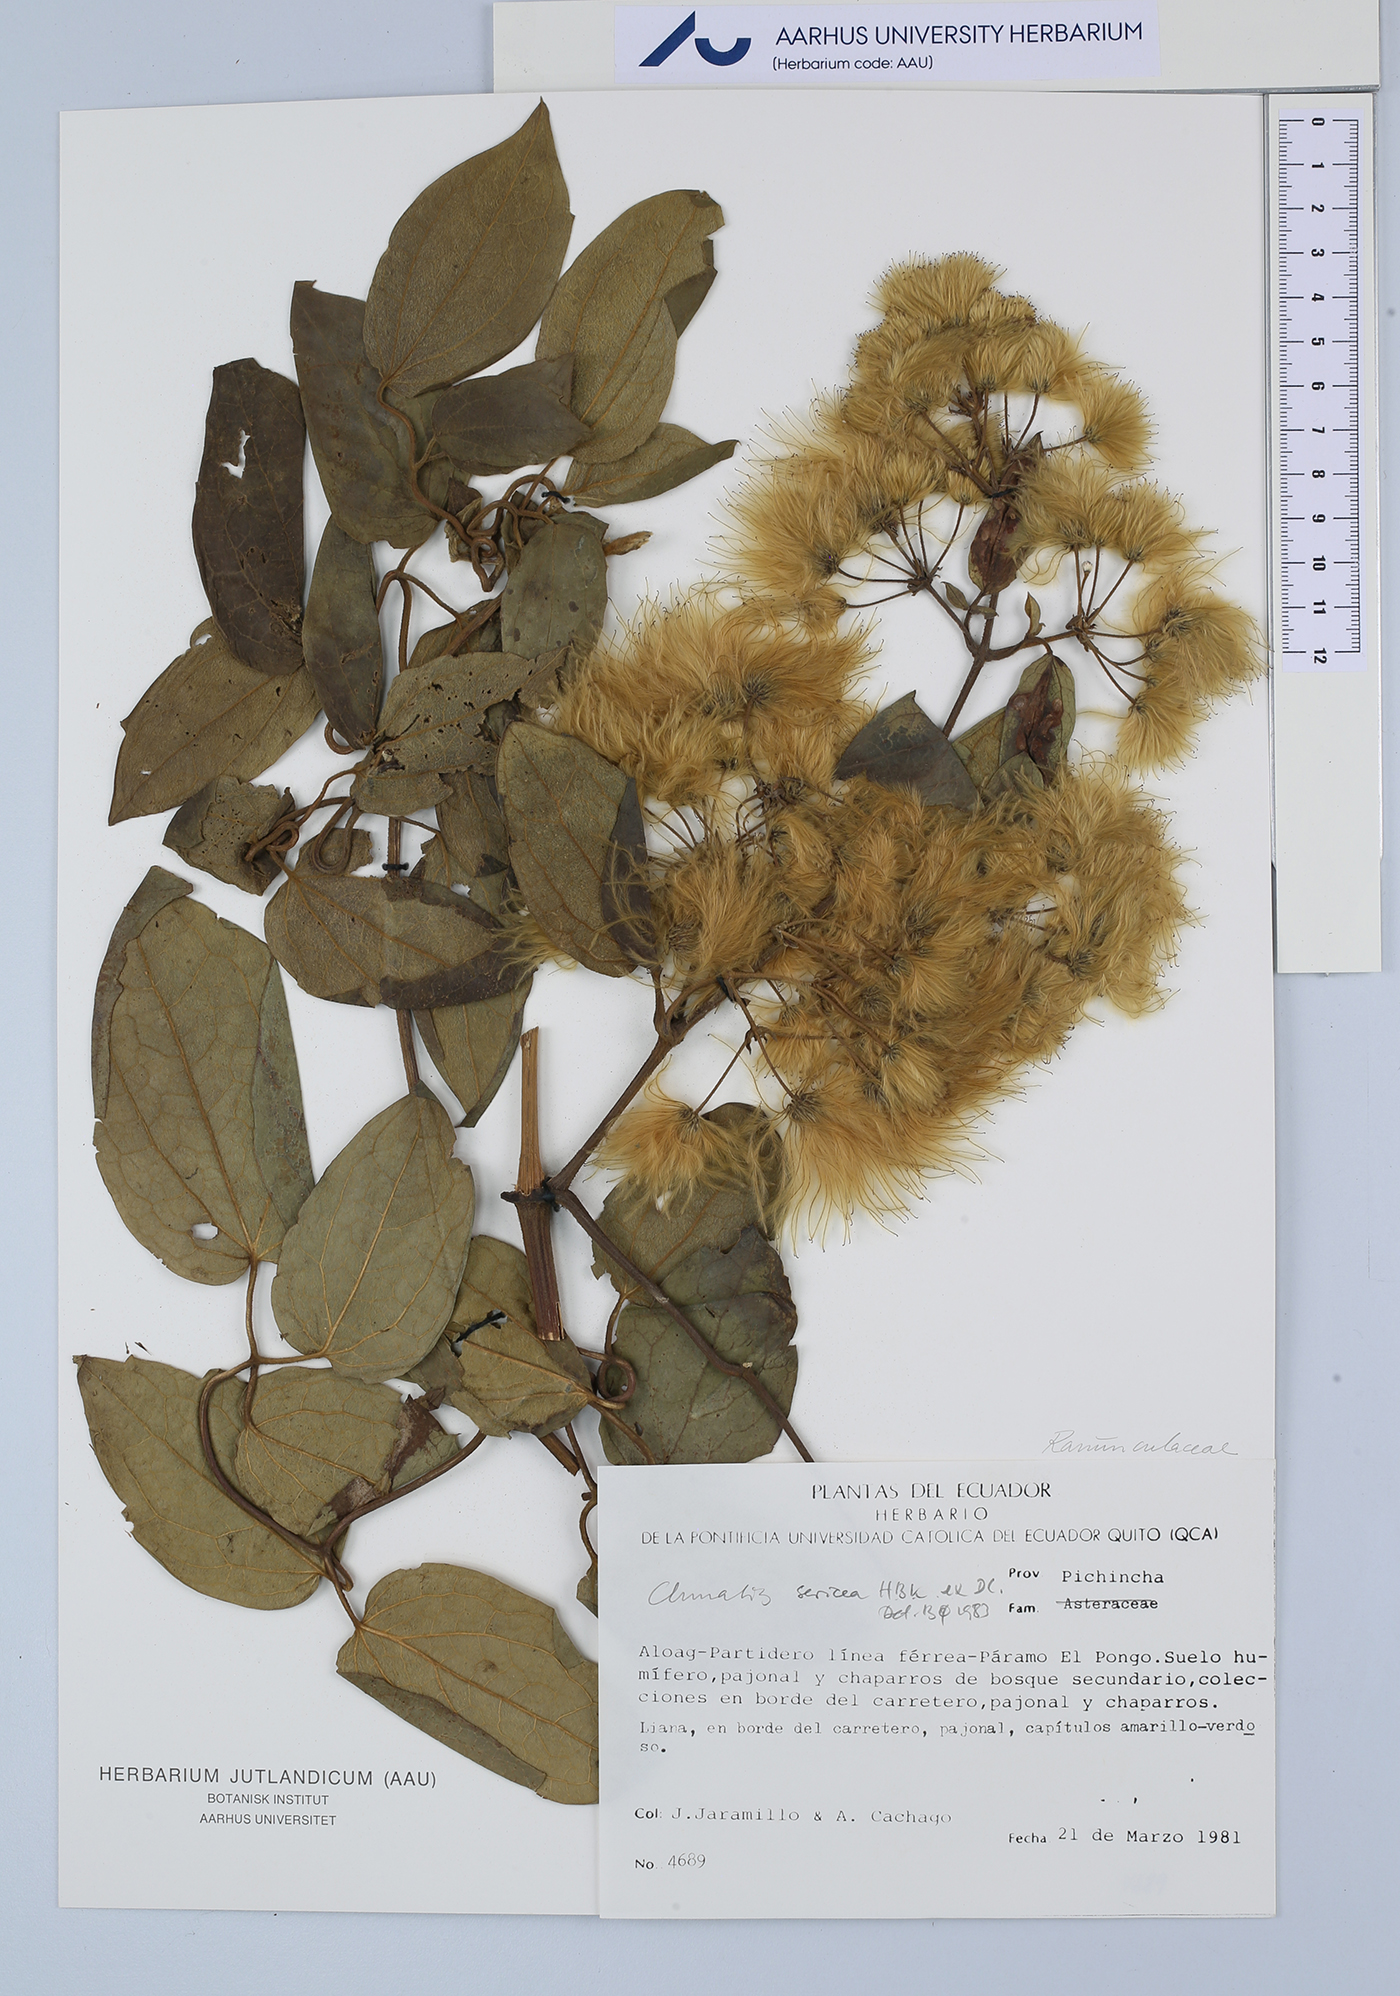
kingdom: Plantae
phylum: Tracheophyta
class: Magnoliopsida
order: Ranunculales
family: Ranunculaceae
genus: Clematis
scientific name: Clematis haenkeana
